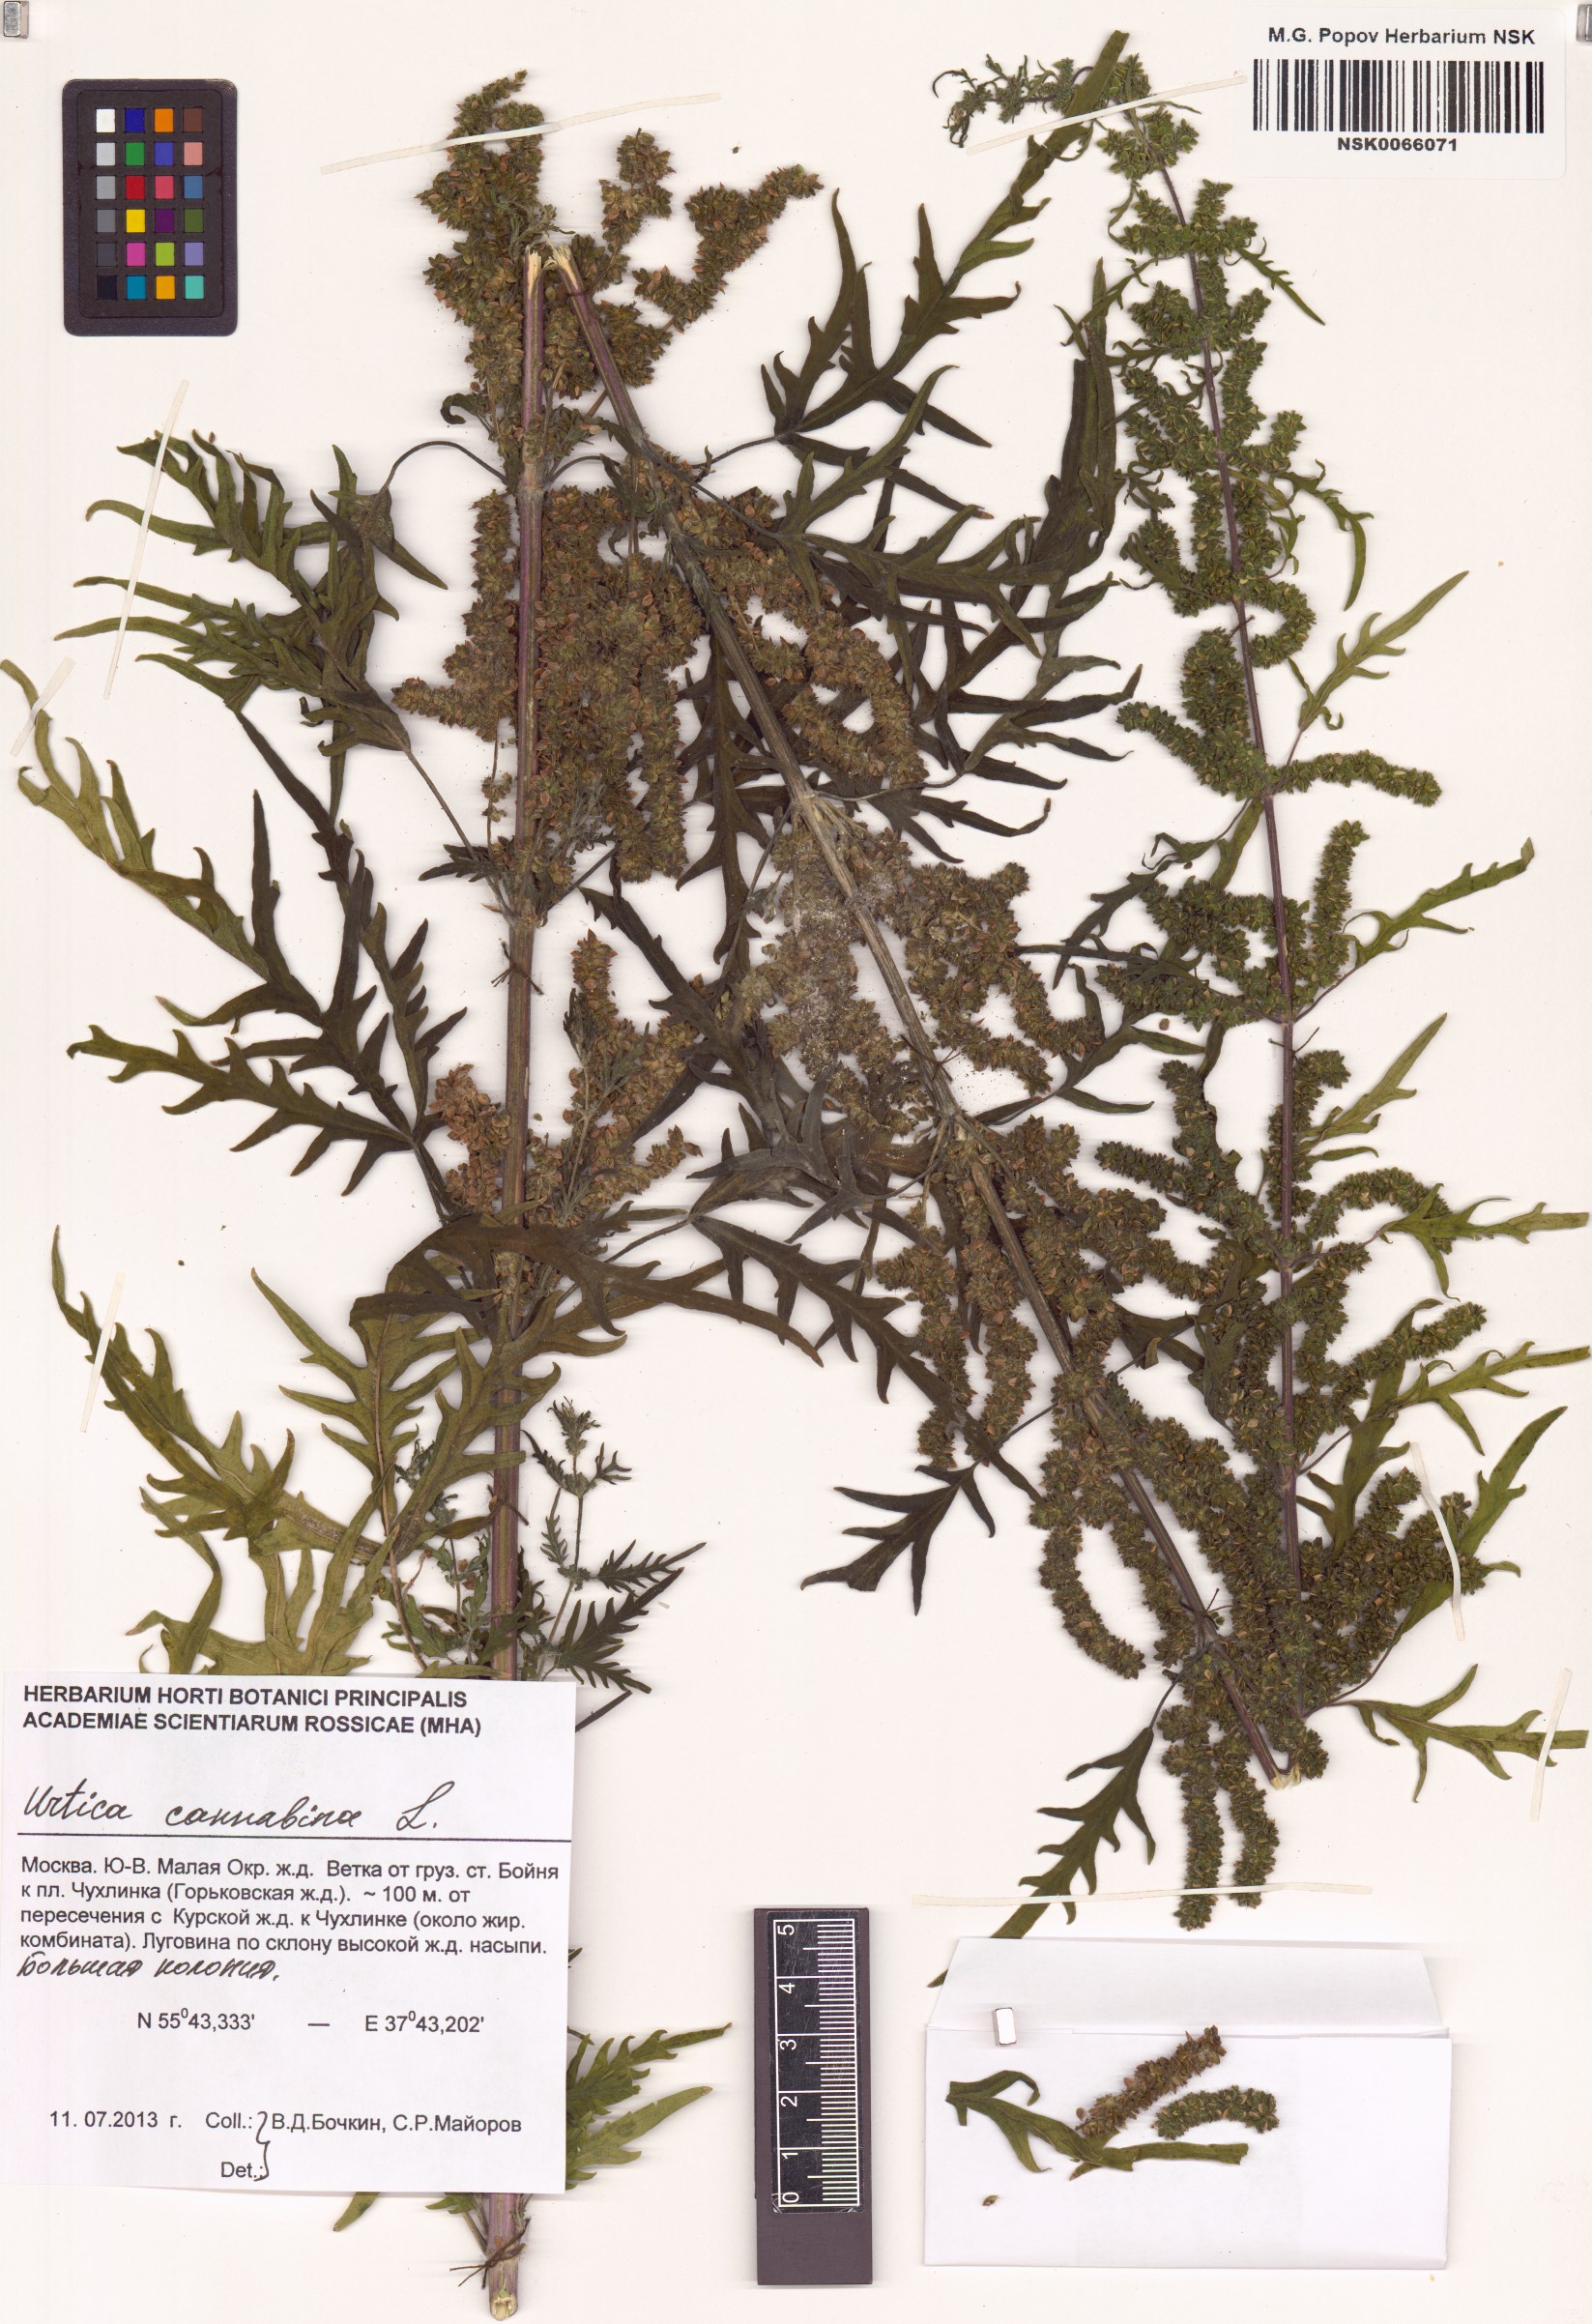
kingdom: Plantae
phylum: Tracheophyta
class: Magnoliopsida
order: Rosales
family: Urticaceae
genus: Urtica
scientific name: Urtica cannabina
